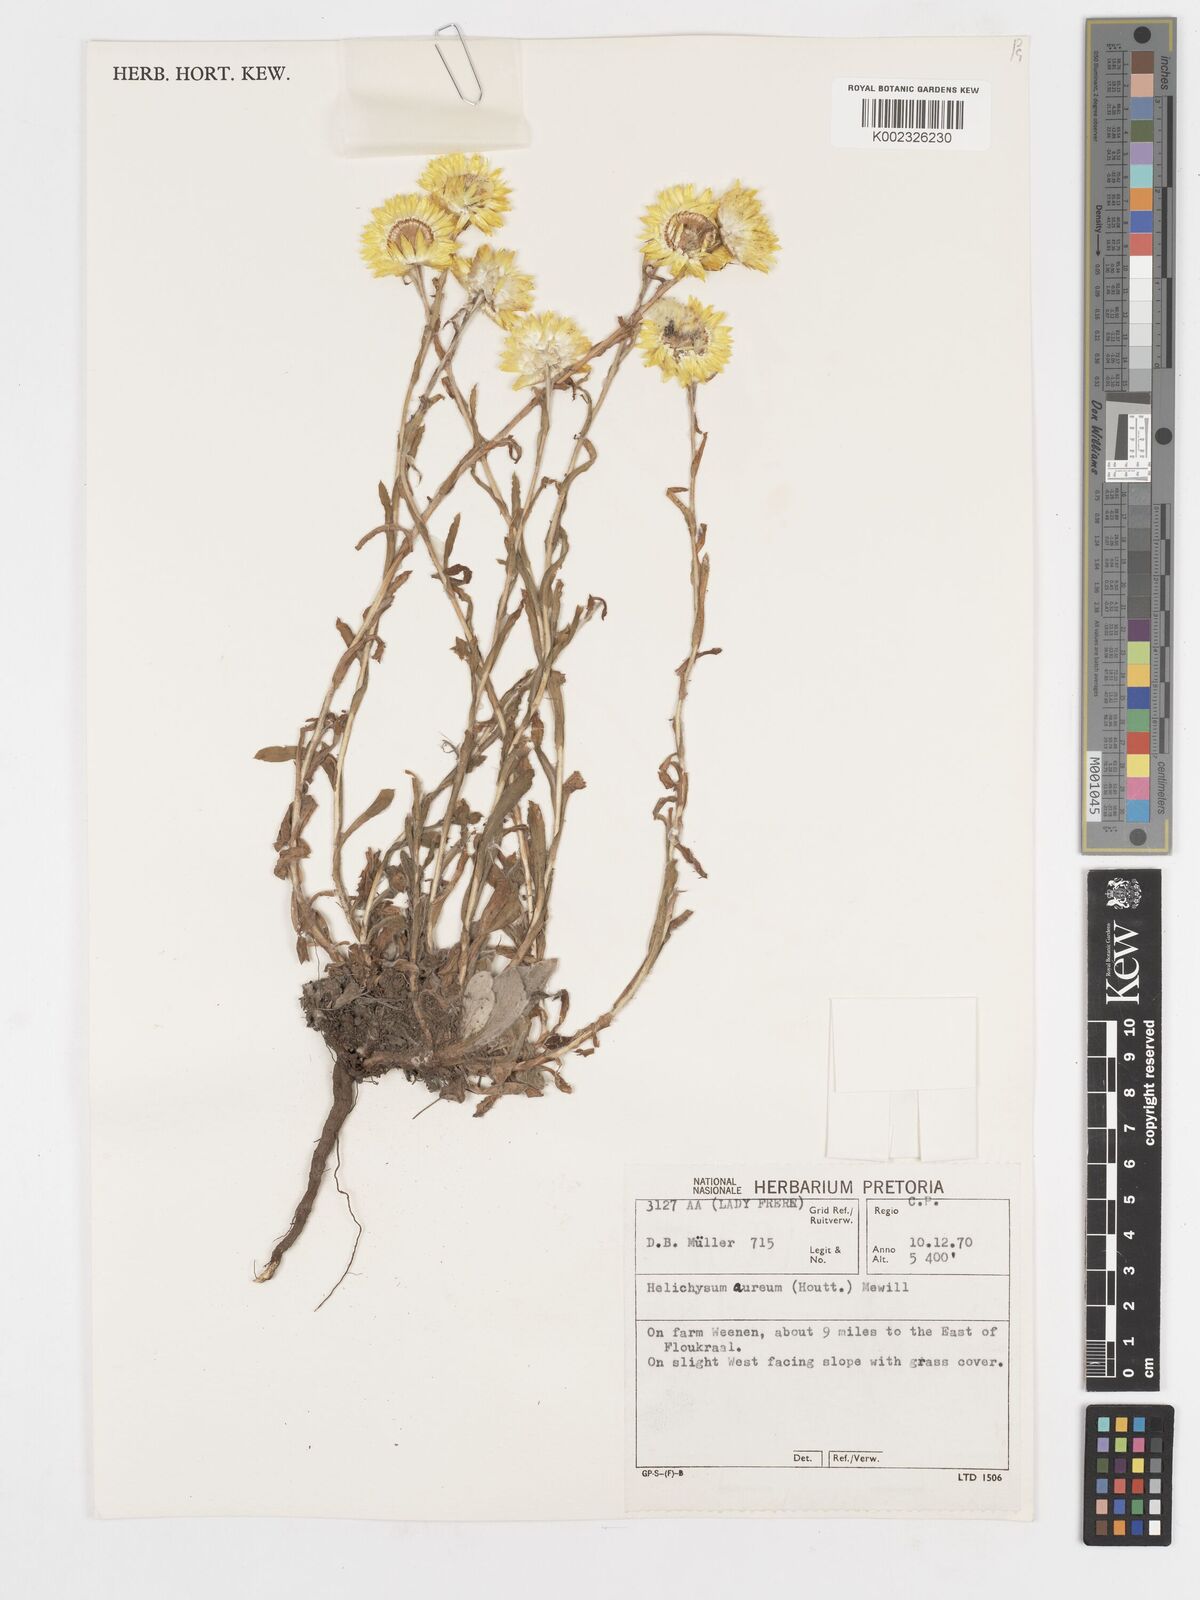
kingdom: Plantae
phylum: Tracheophyta
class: Magnoliopsida
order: Asterales
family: Asteraceae
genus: Helichrysum
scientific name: Helichrysum aureum
